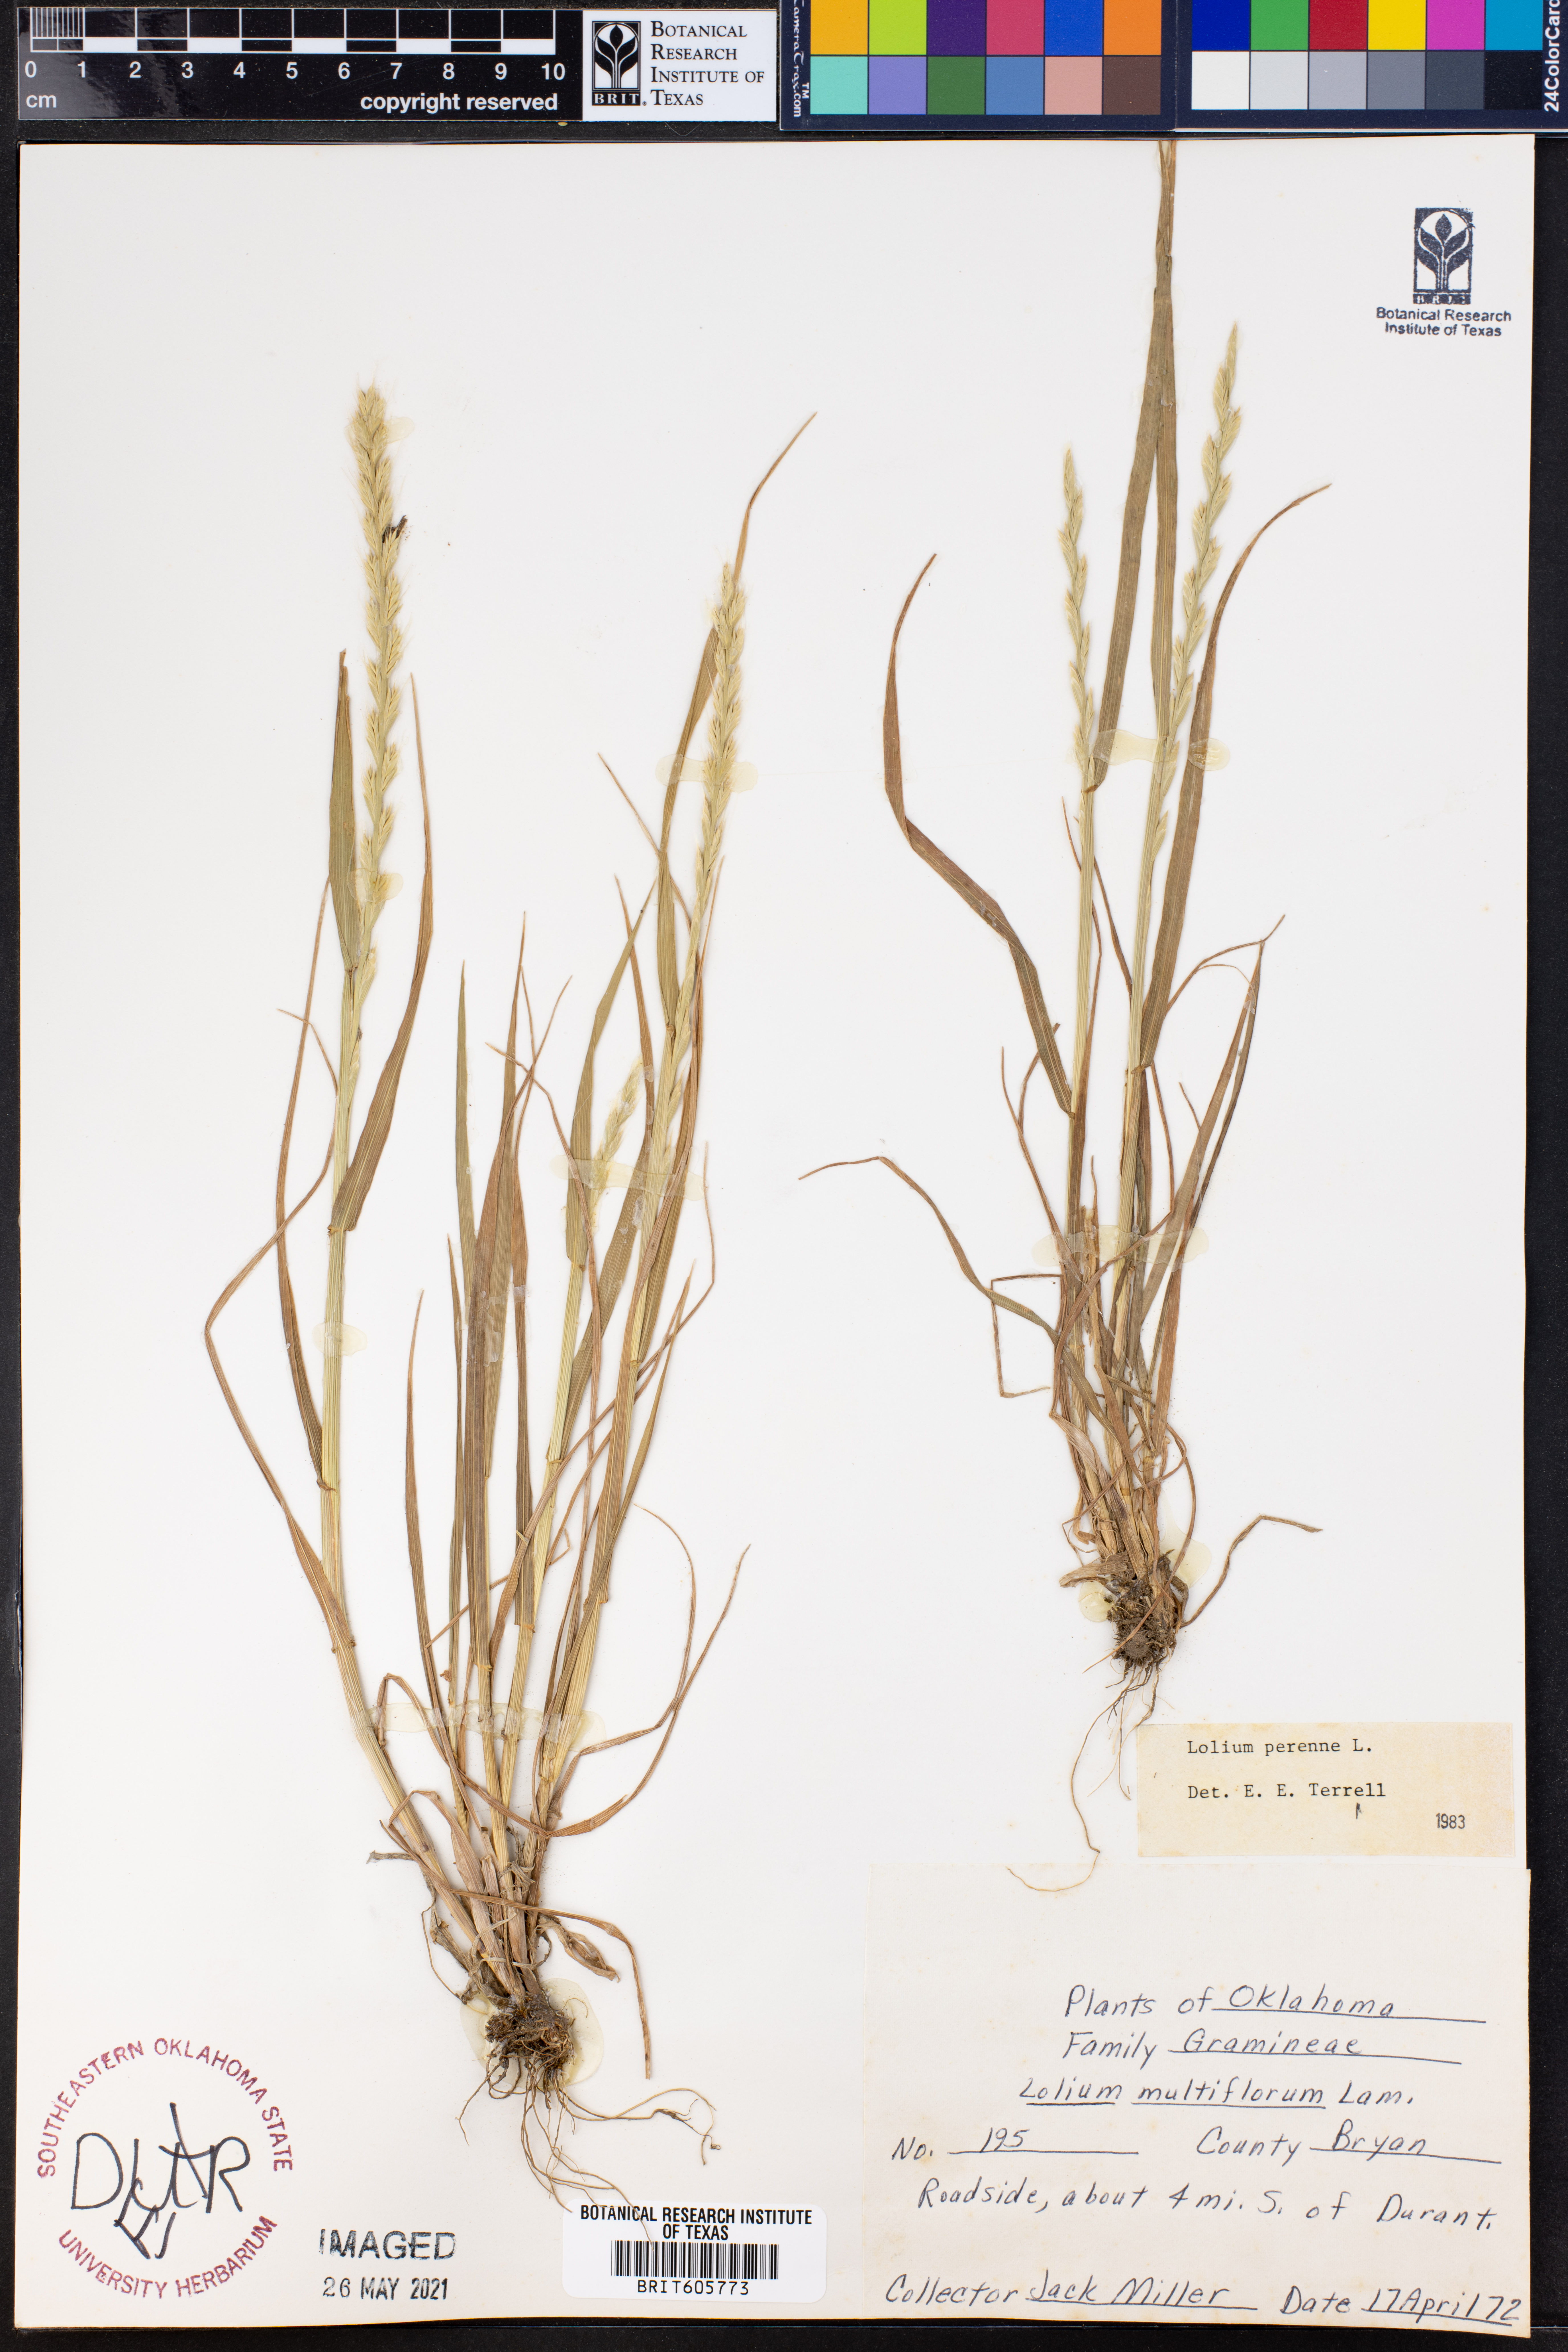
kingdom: Plantae
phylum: Tracheophyta
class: Liliopsida
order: Poales
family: Poaceae
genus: Lolium
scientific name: Lolium perenne
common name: Perennial ryegrass
